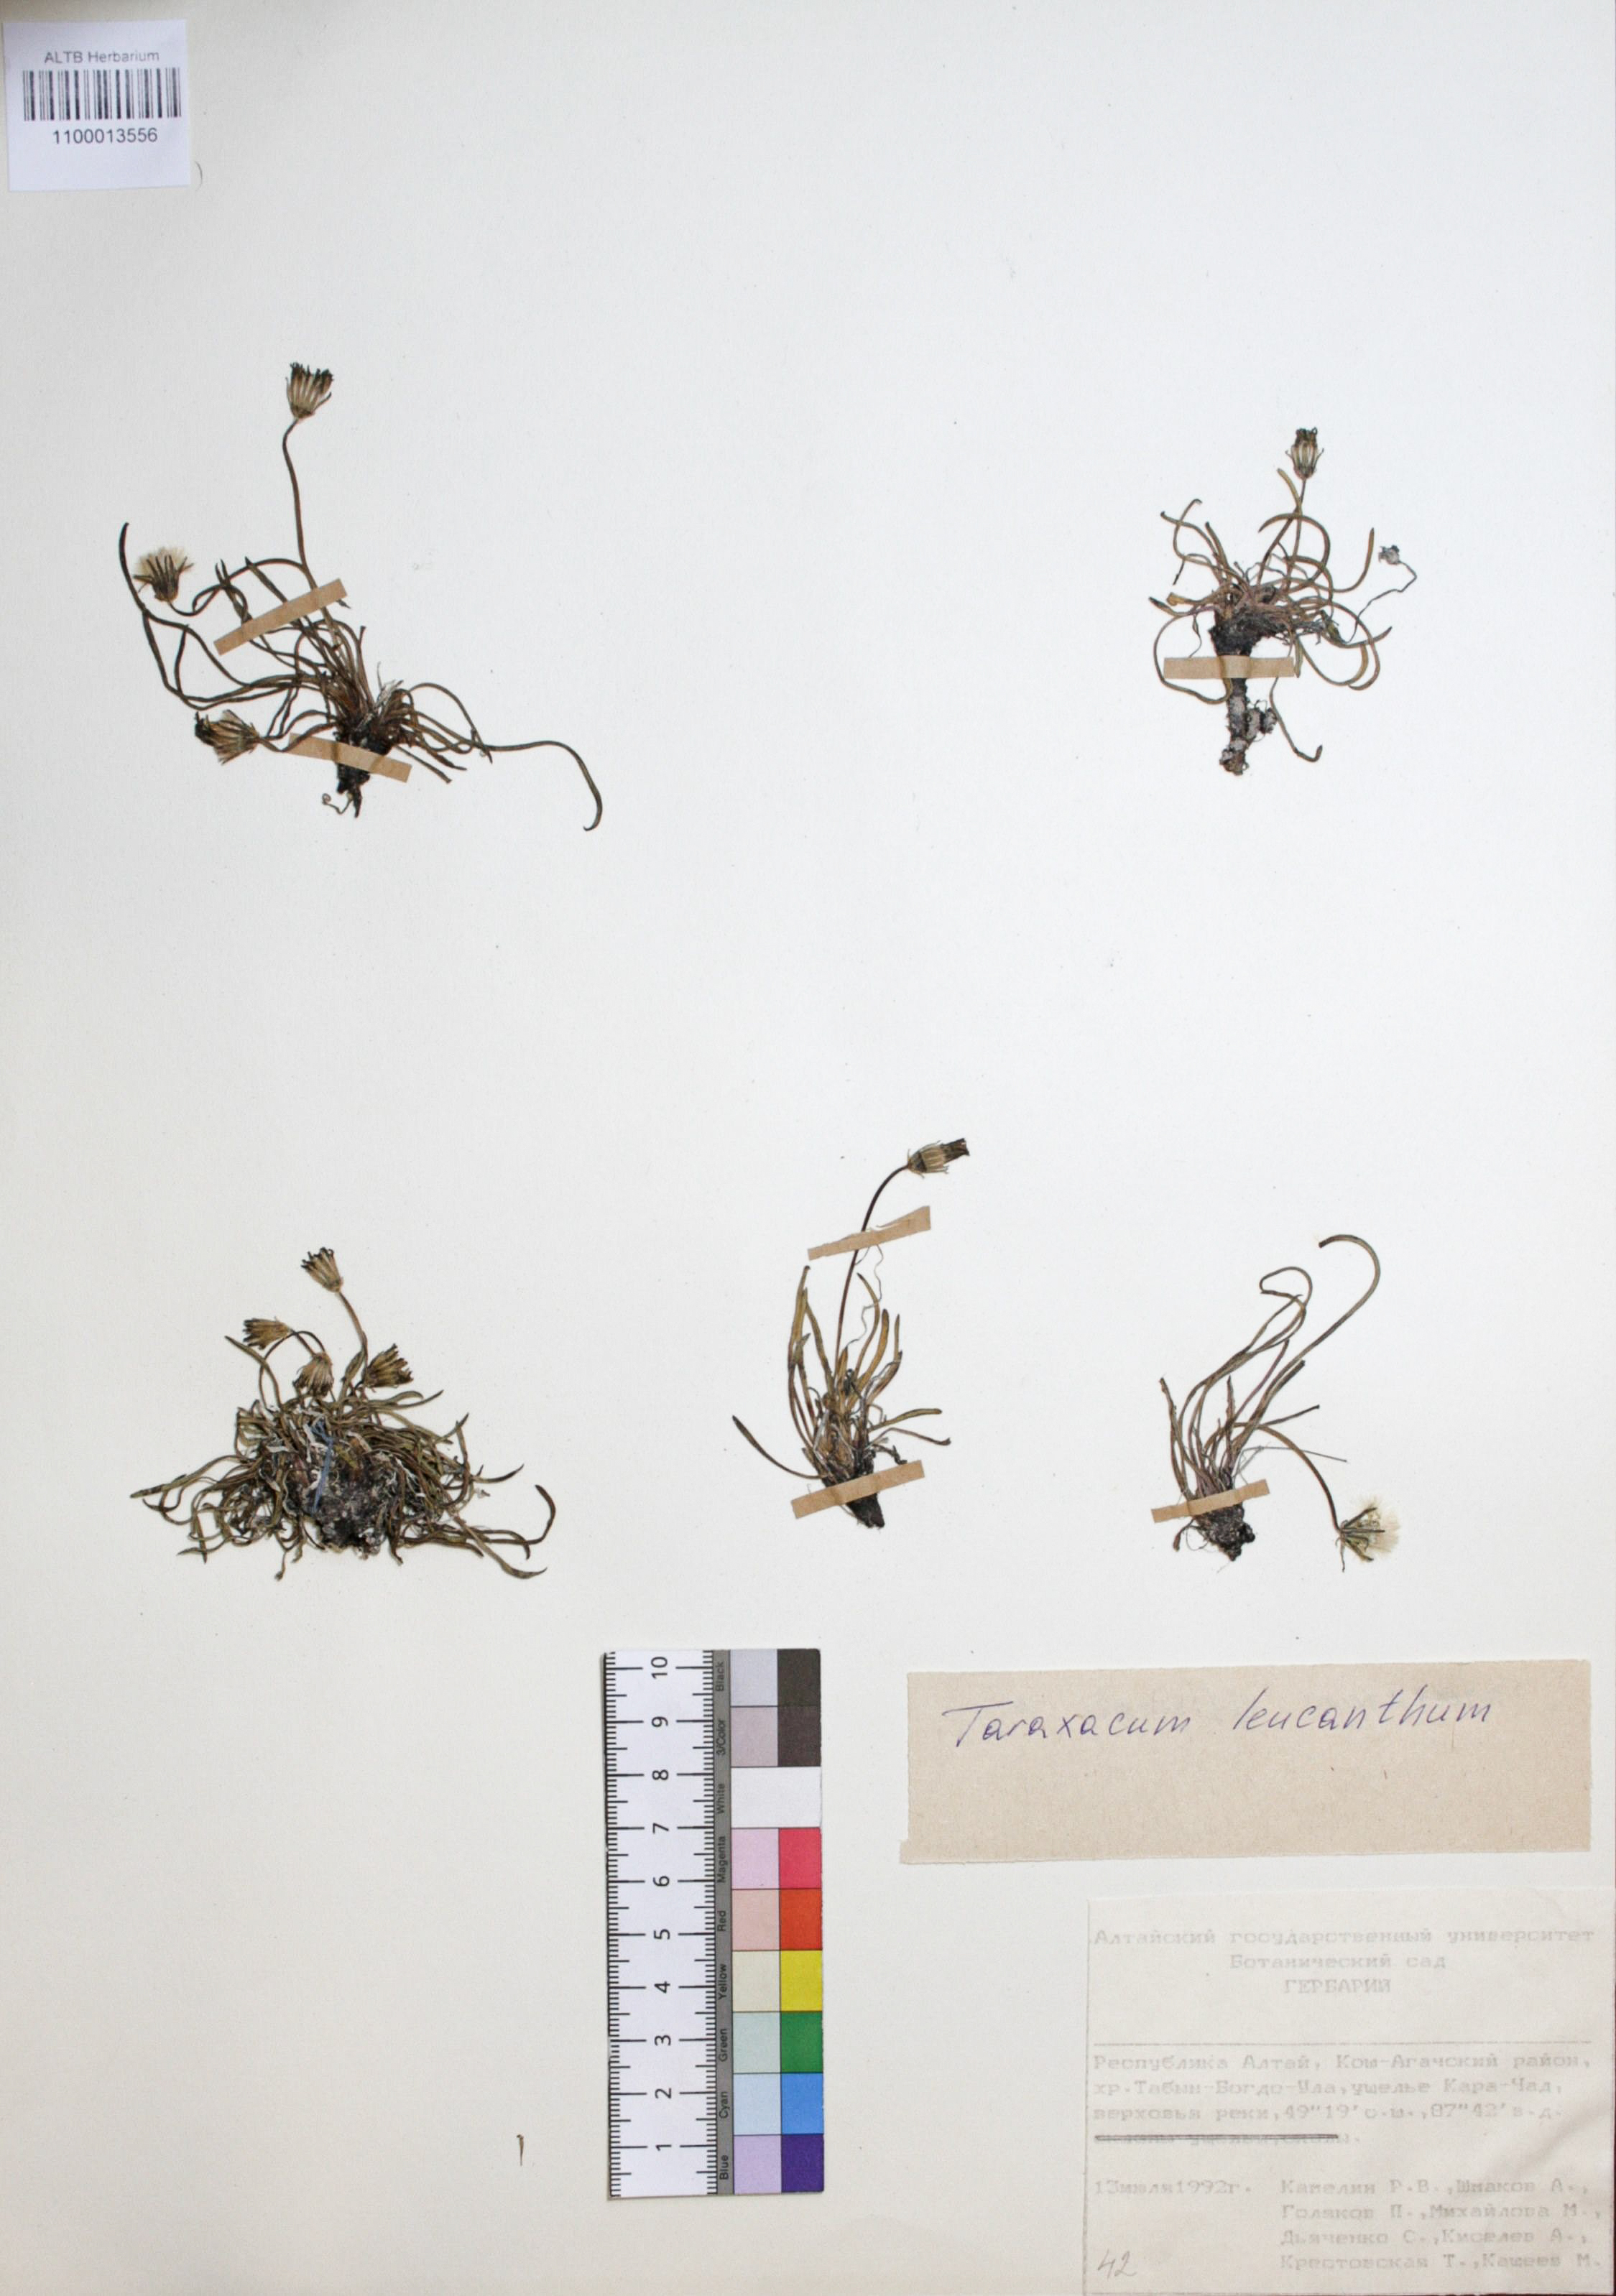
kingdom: Plantae
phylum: Tracheophyta
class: Magnoliopsida
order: Asterales
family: Asteraceae
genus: Taraxacum
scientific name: Taraxacum leucanthum
